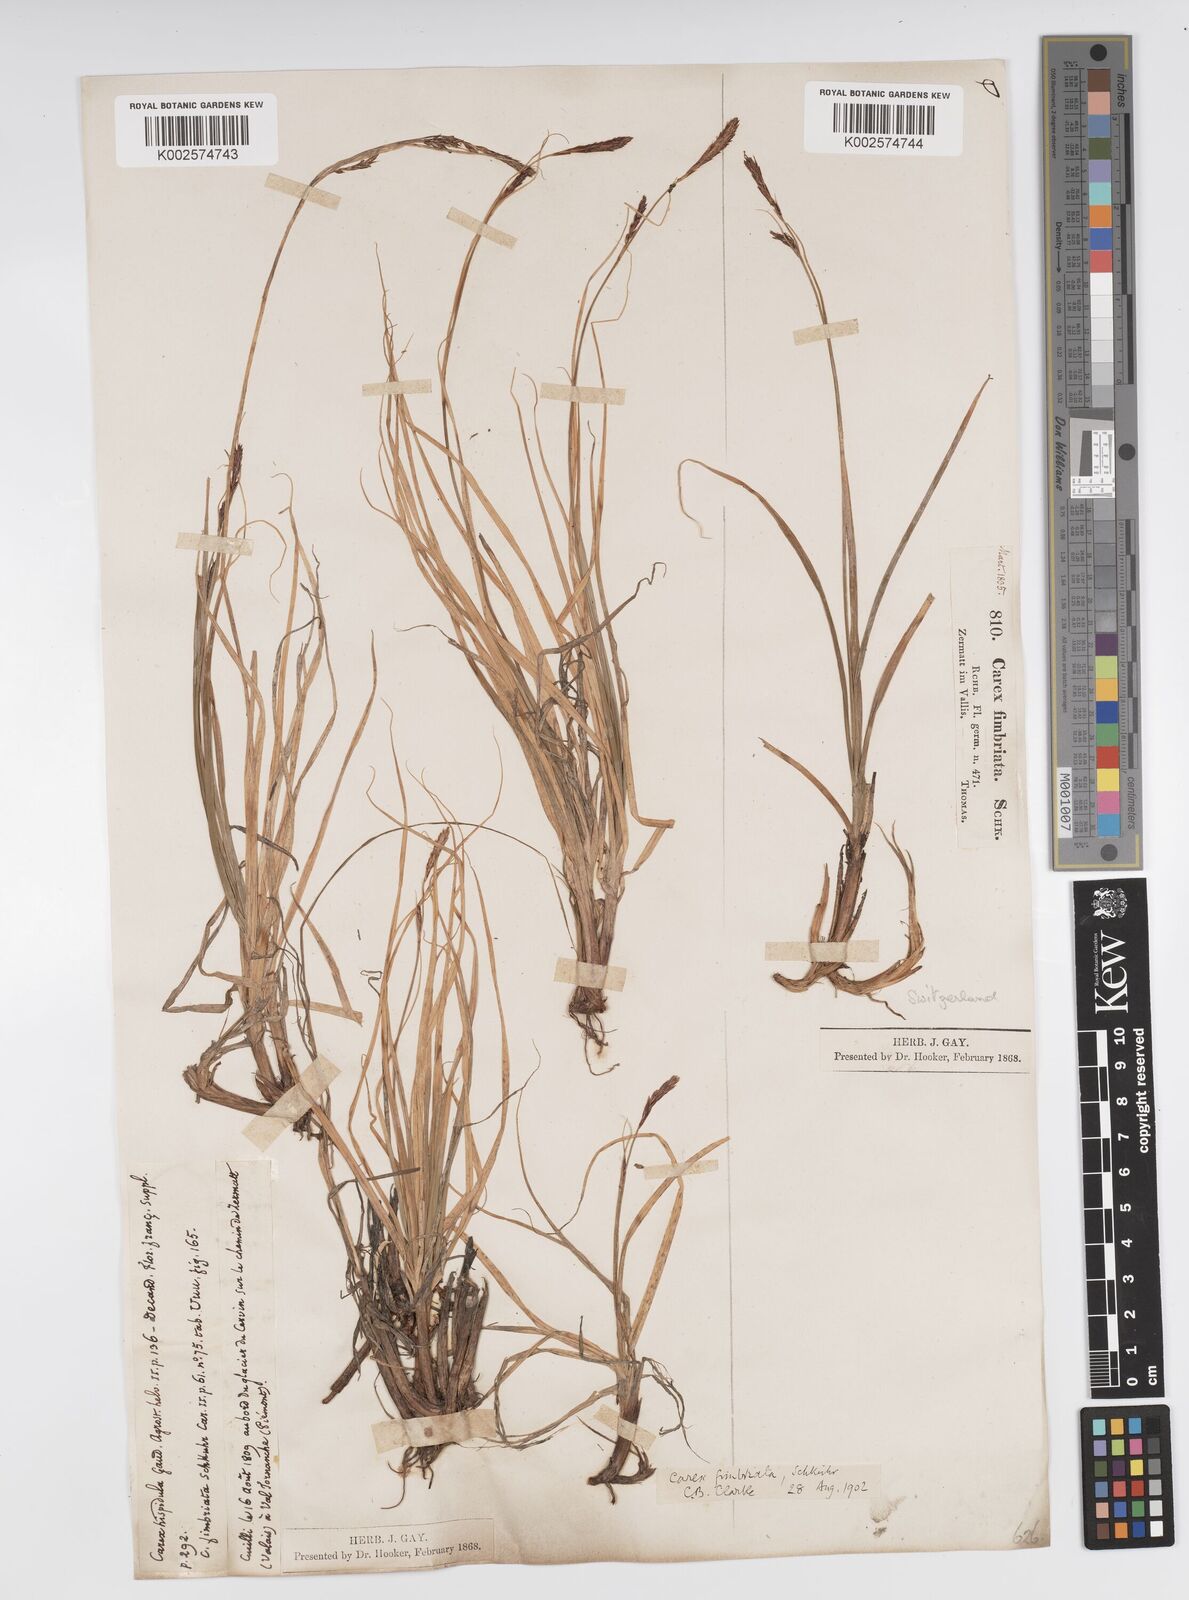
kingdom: Plantae
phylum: Tracheophyta
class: Liliopsida
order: Poales
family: Cyperaceae
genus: Carex
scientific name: Carex fimbriata
